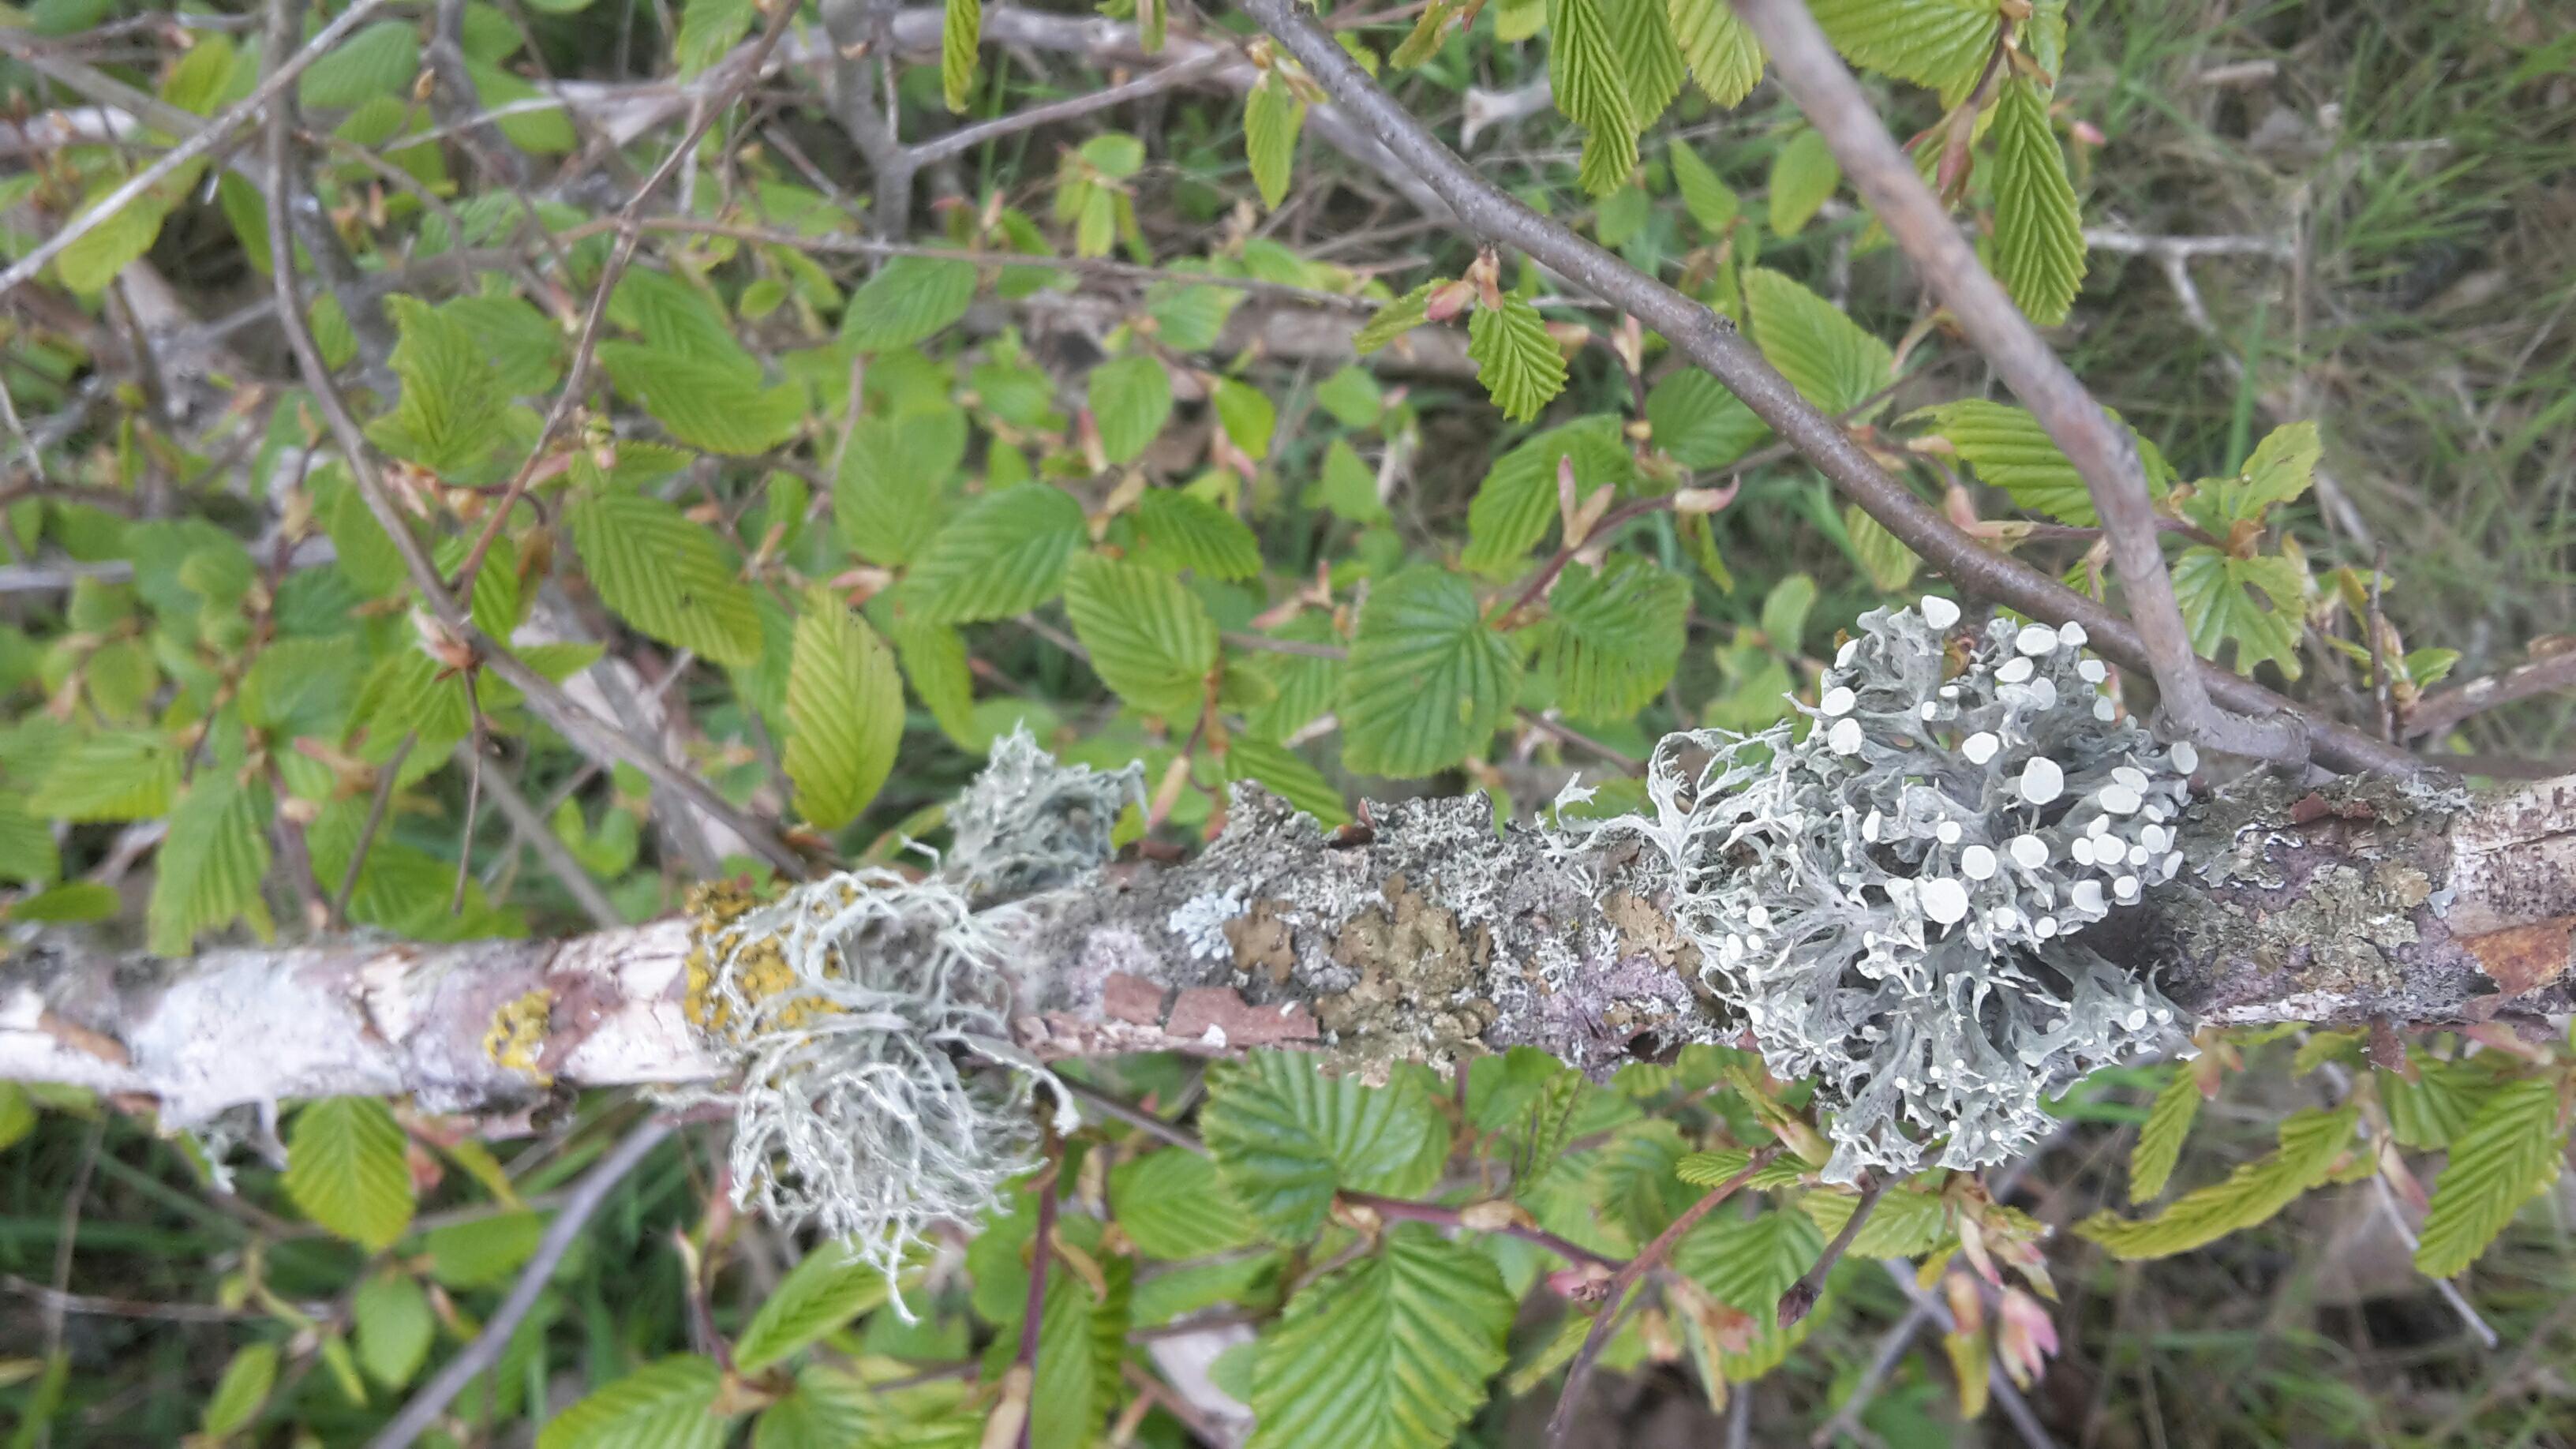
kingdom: Fungi
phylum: Ascomycota
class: Lecanoromycetes
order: Lecanorales
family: Ramalinaceae
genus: Ramalina
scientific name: Ramalina fastigiata
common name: tue-grenlav
